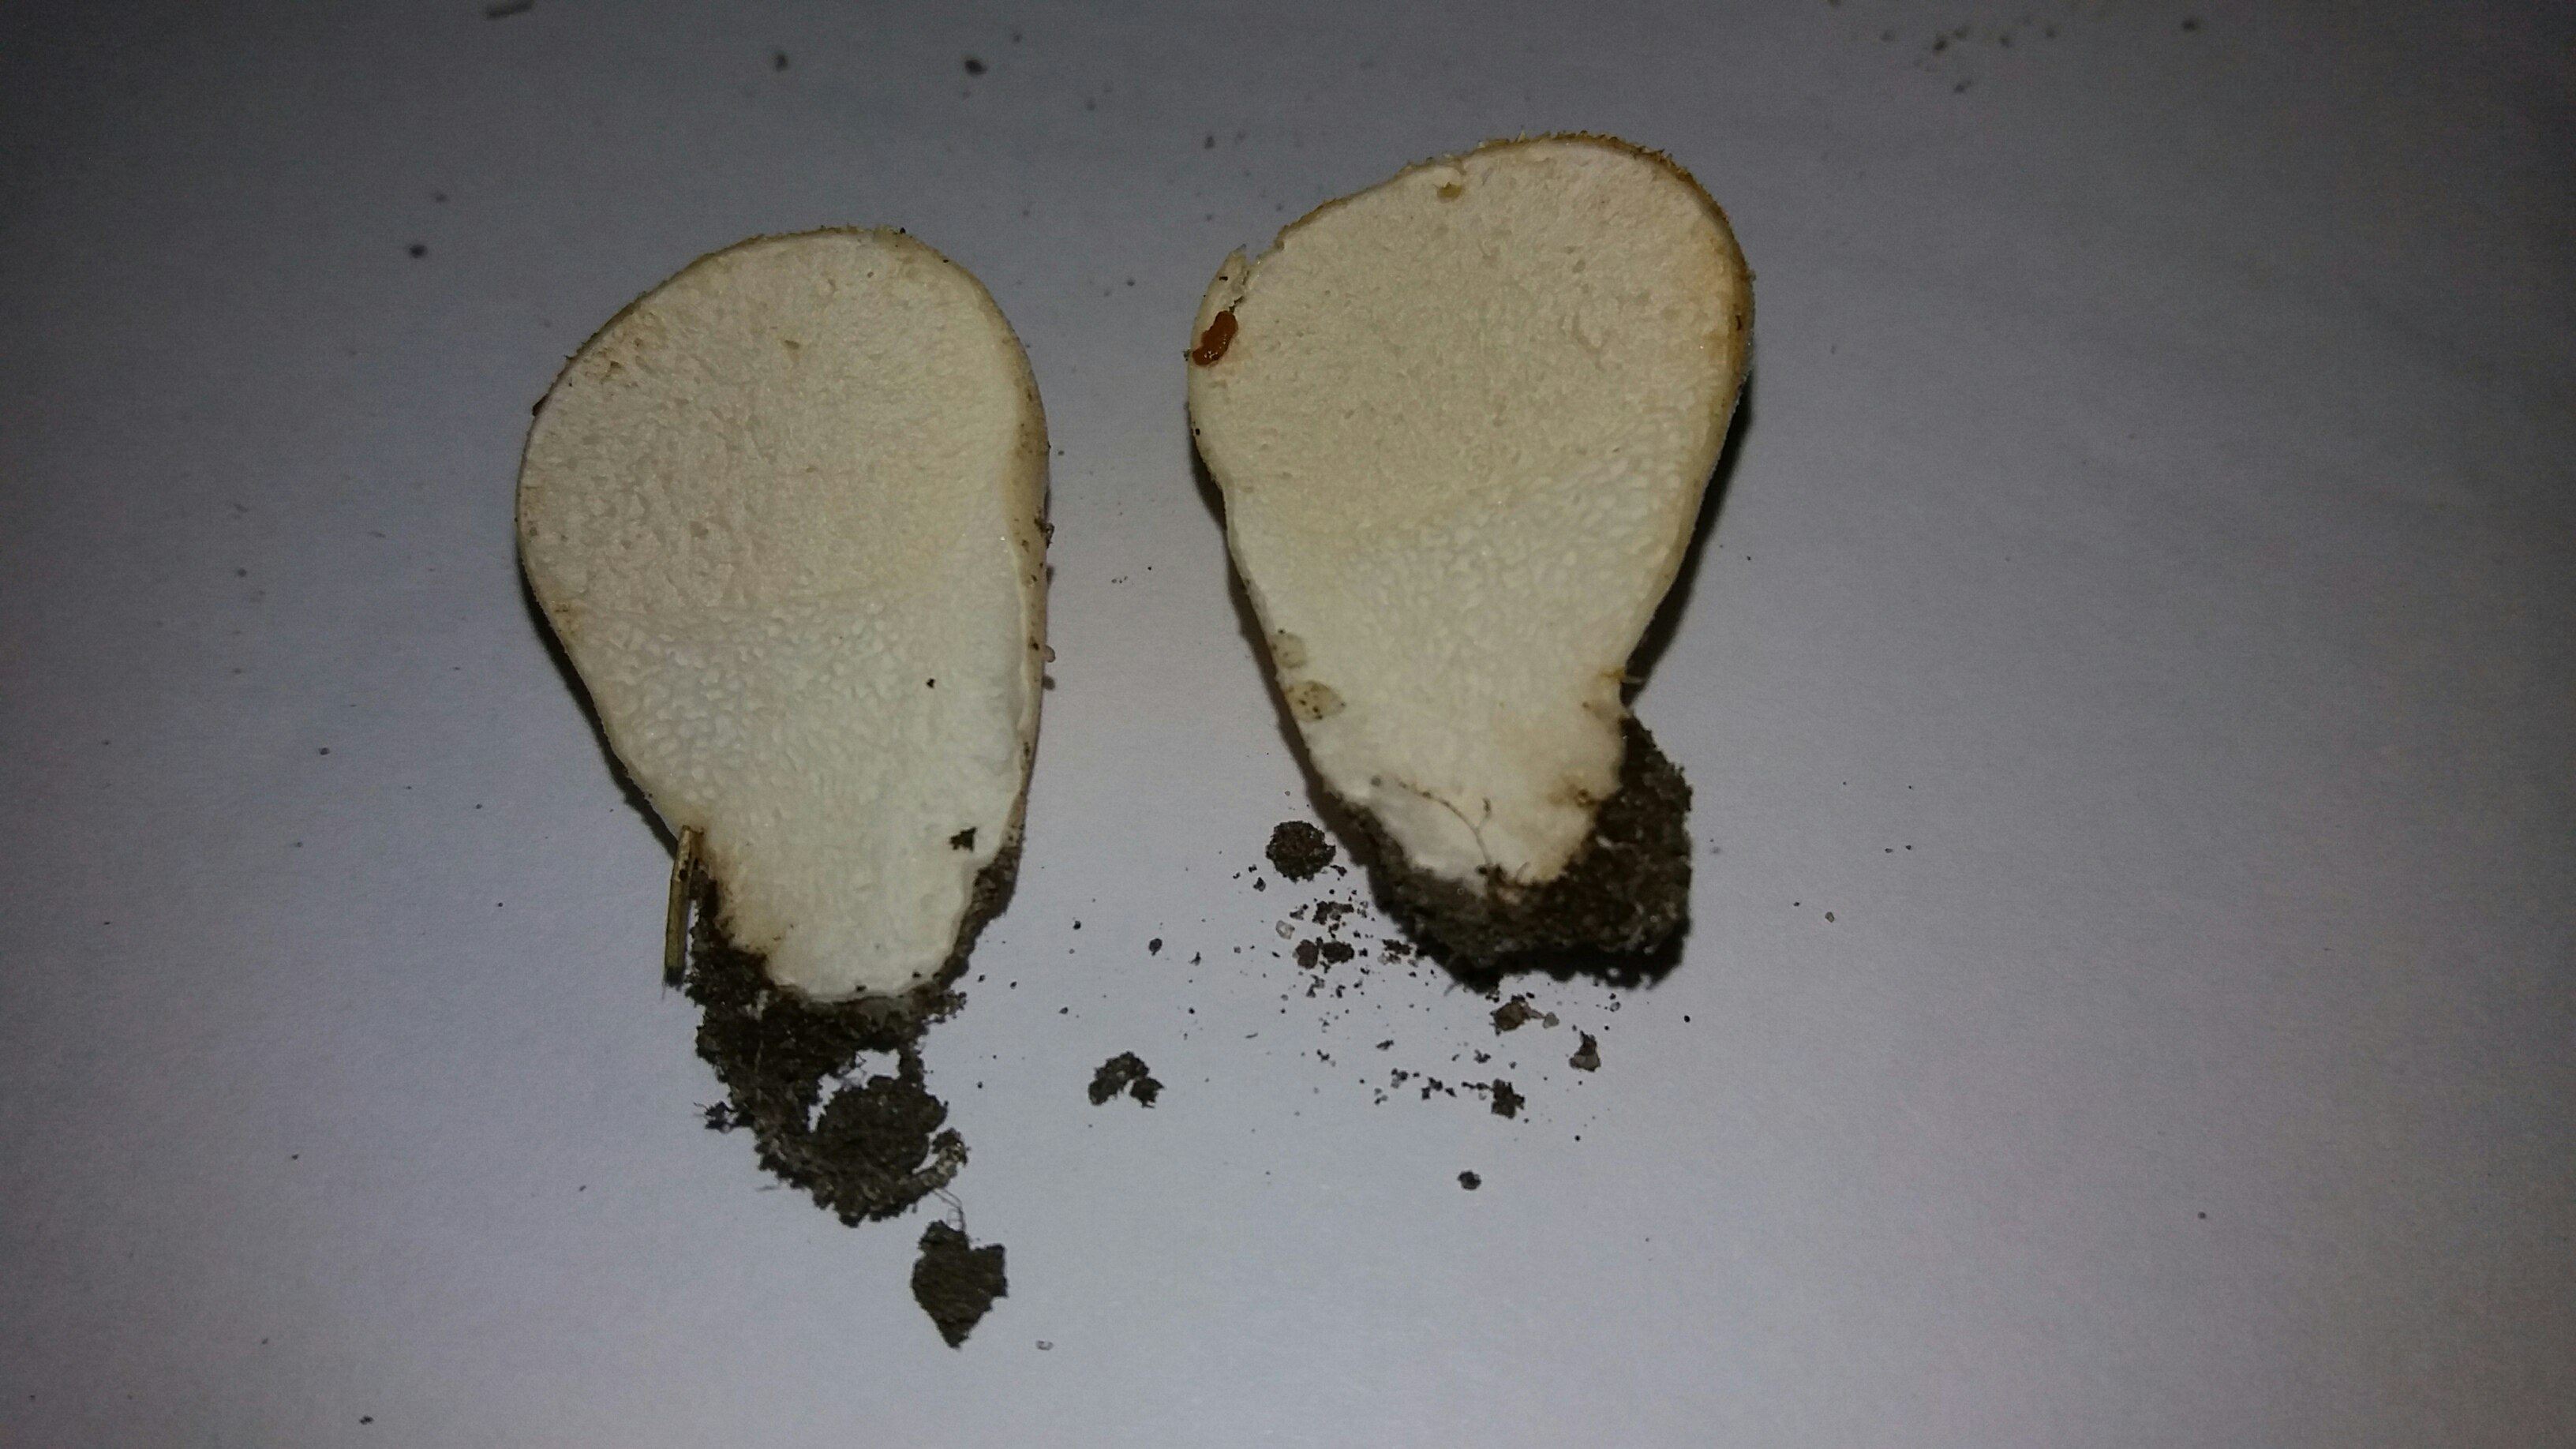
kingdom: Fungi
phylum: Basidiomycota
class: Agaricomycetes
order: Agaricales
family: Lycoperdaceae
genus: Lycoperdon
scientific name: Lycoperdon pratense
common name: flad støvbold
